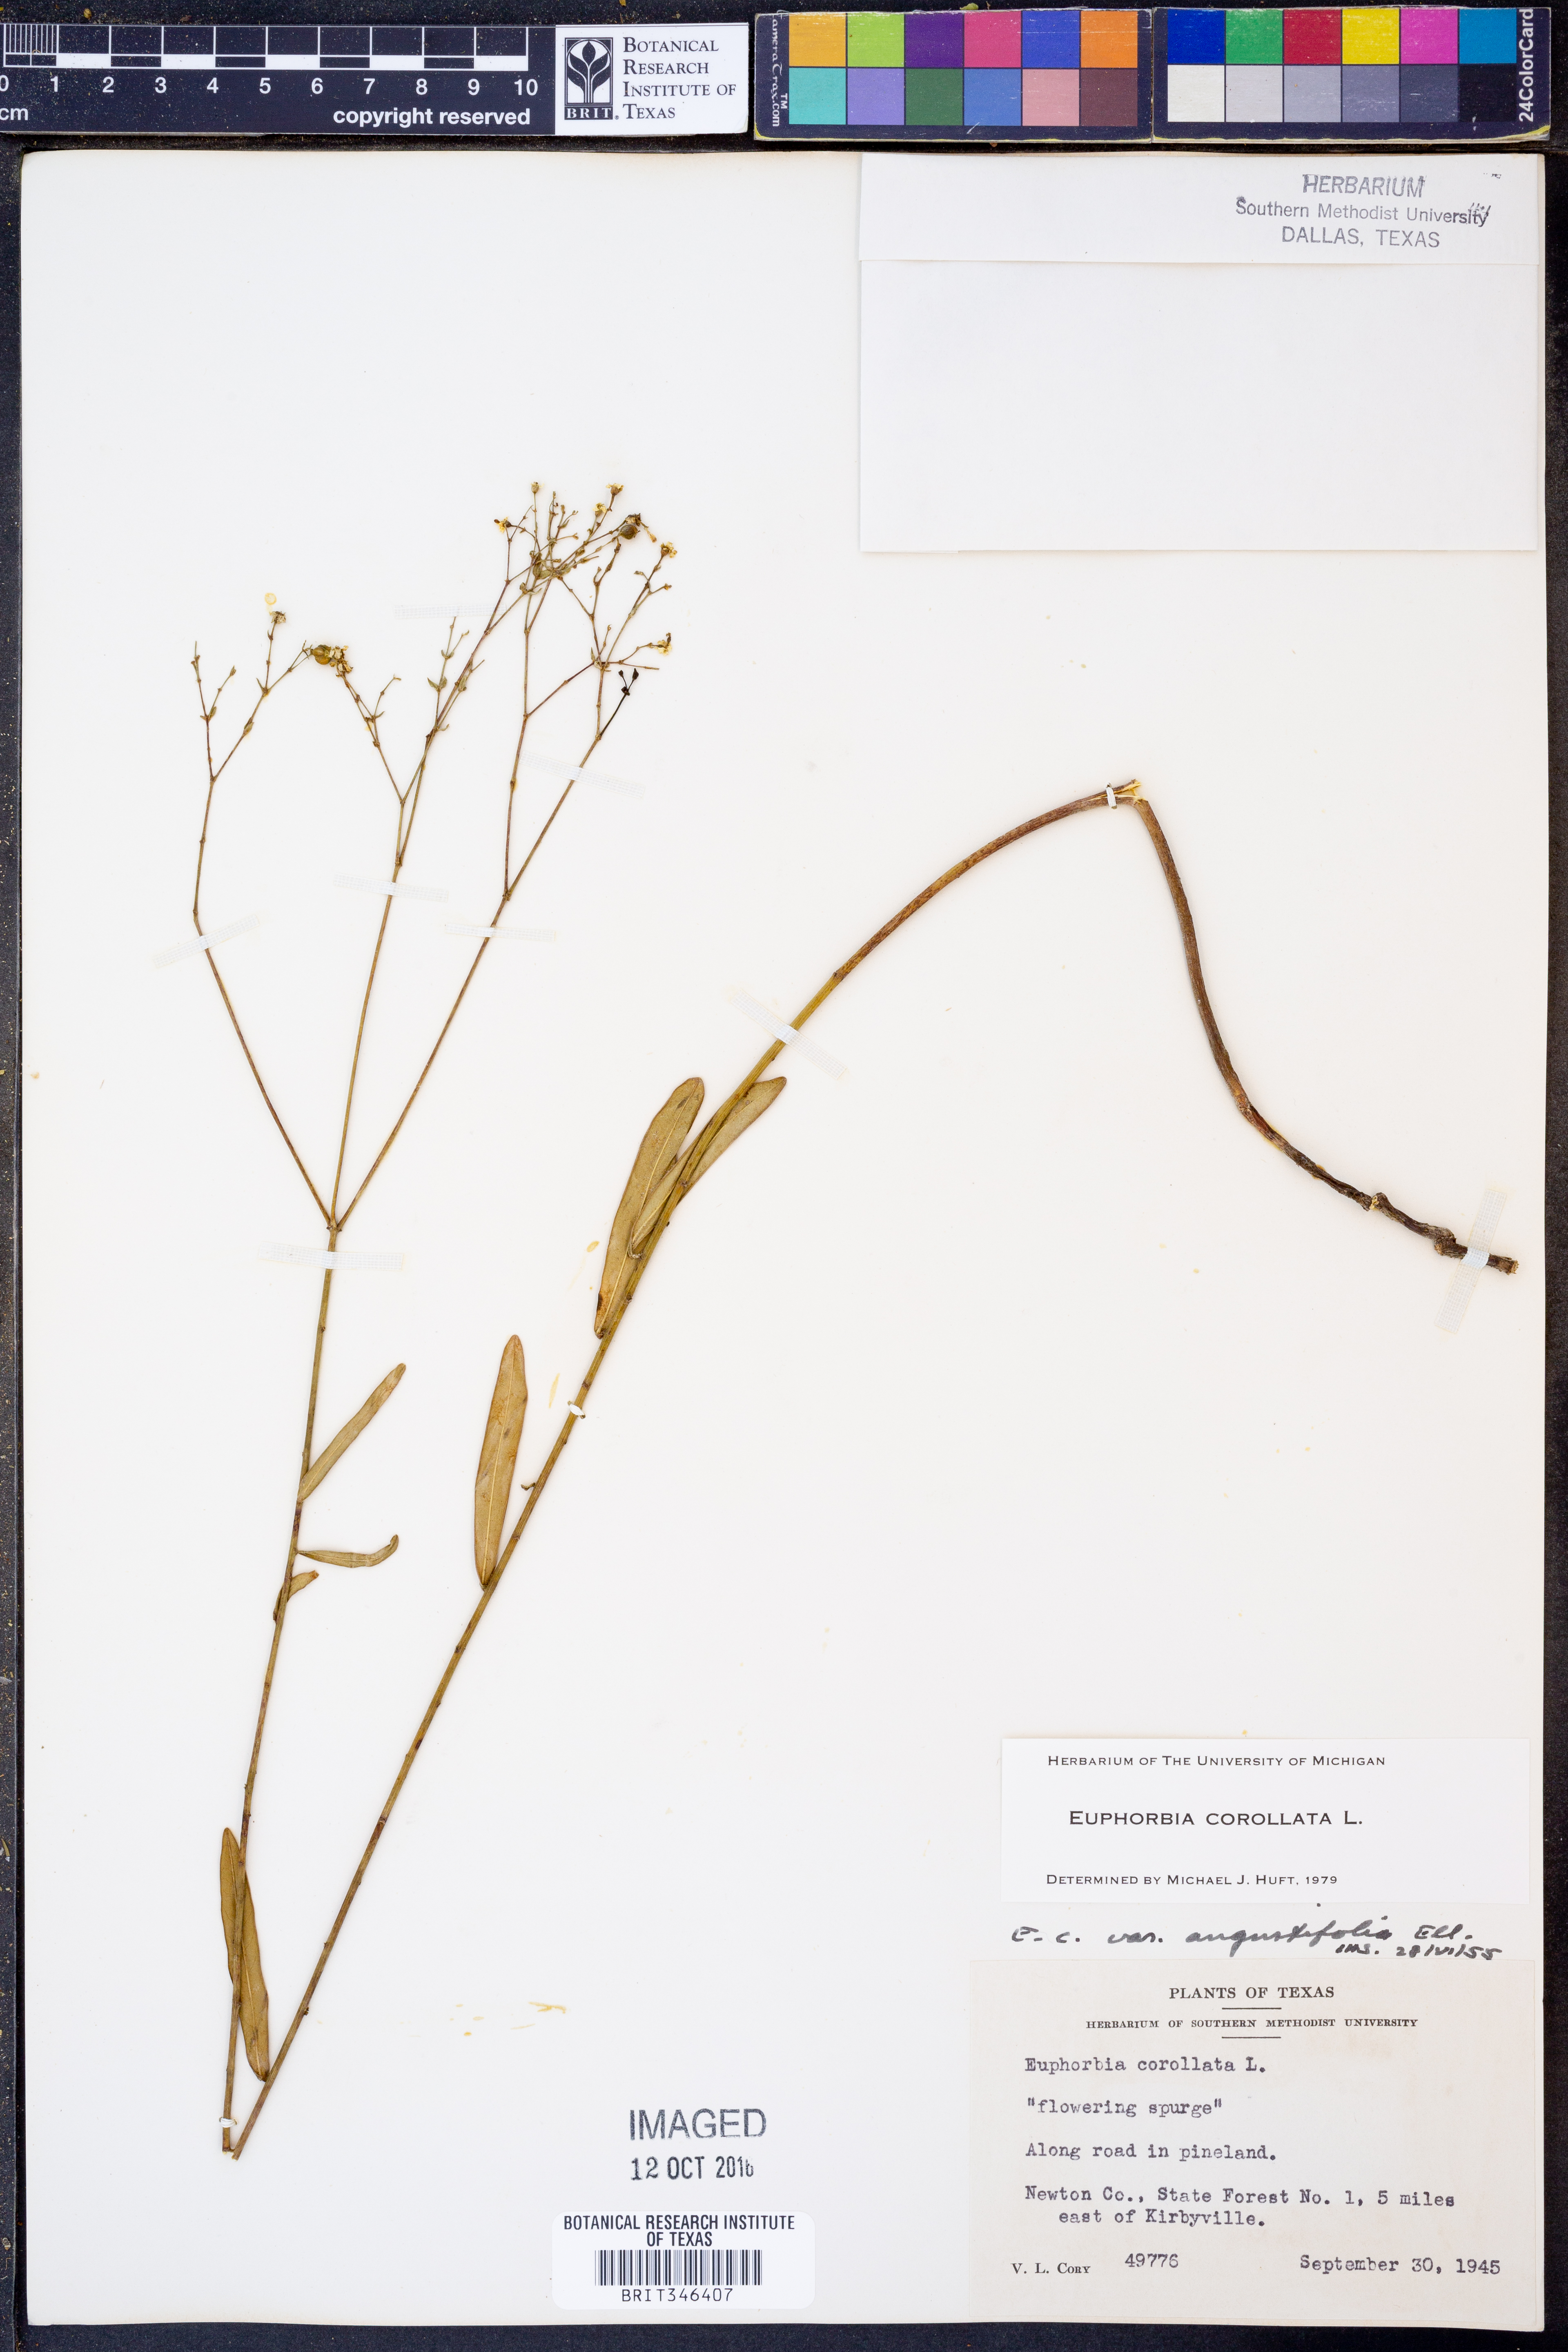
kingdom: Plantae
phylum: Tracheophyta
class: Magnoliopsida
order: Malpighiales
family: Euphorbiaceae
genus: Euphorbia
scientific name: Euphorbia corollata
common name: Flowering spurge
